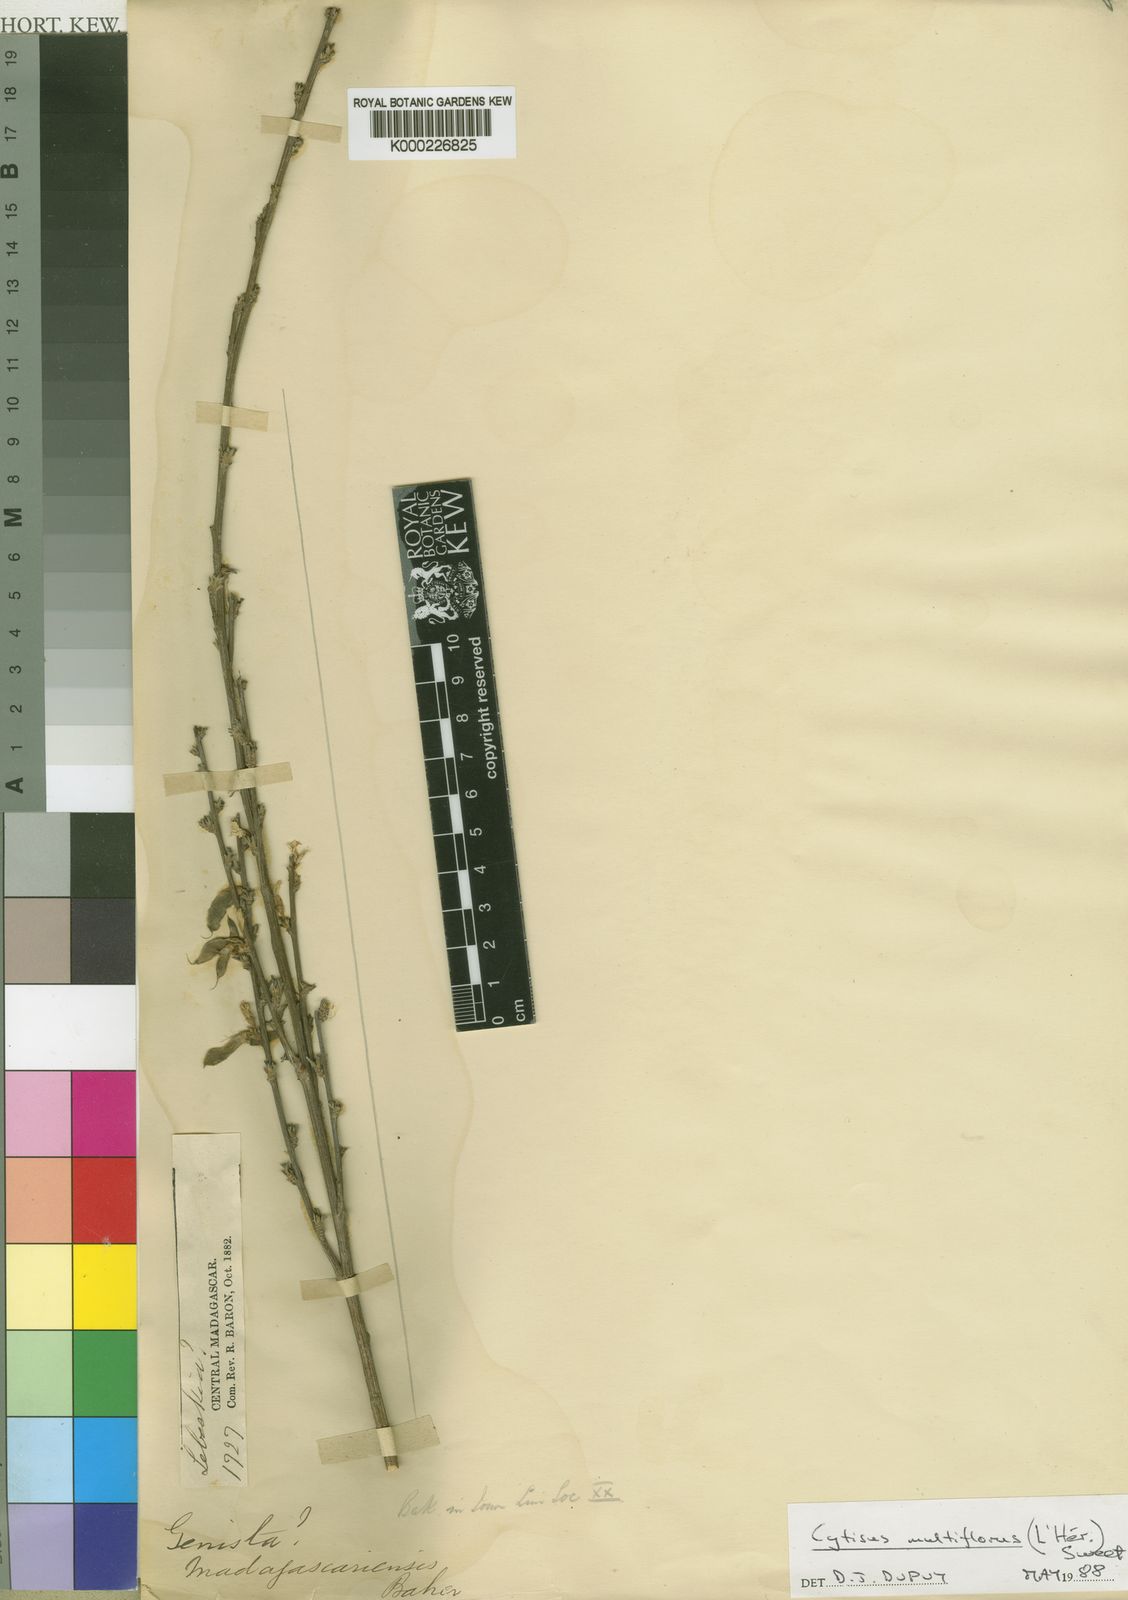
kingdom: Plantae
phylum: Tracheophyta
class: Magnoliopsida
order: Fabales
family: Fabaceae
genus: Cytisus
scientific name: Cytisus multiflorus
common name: White broom
